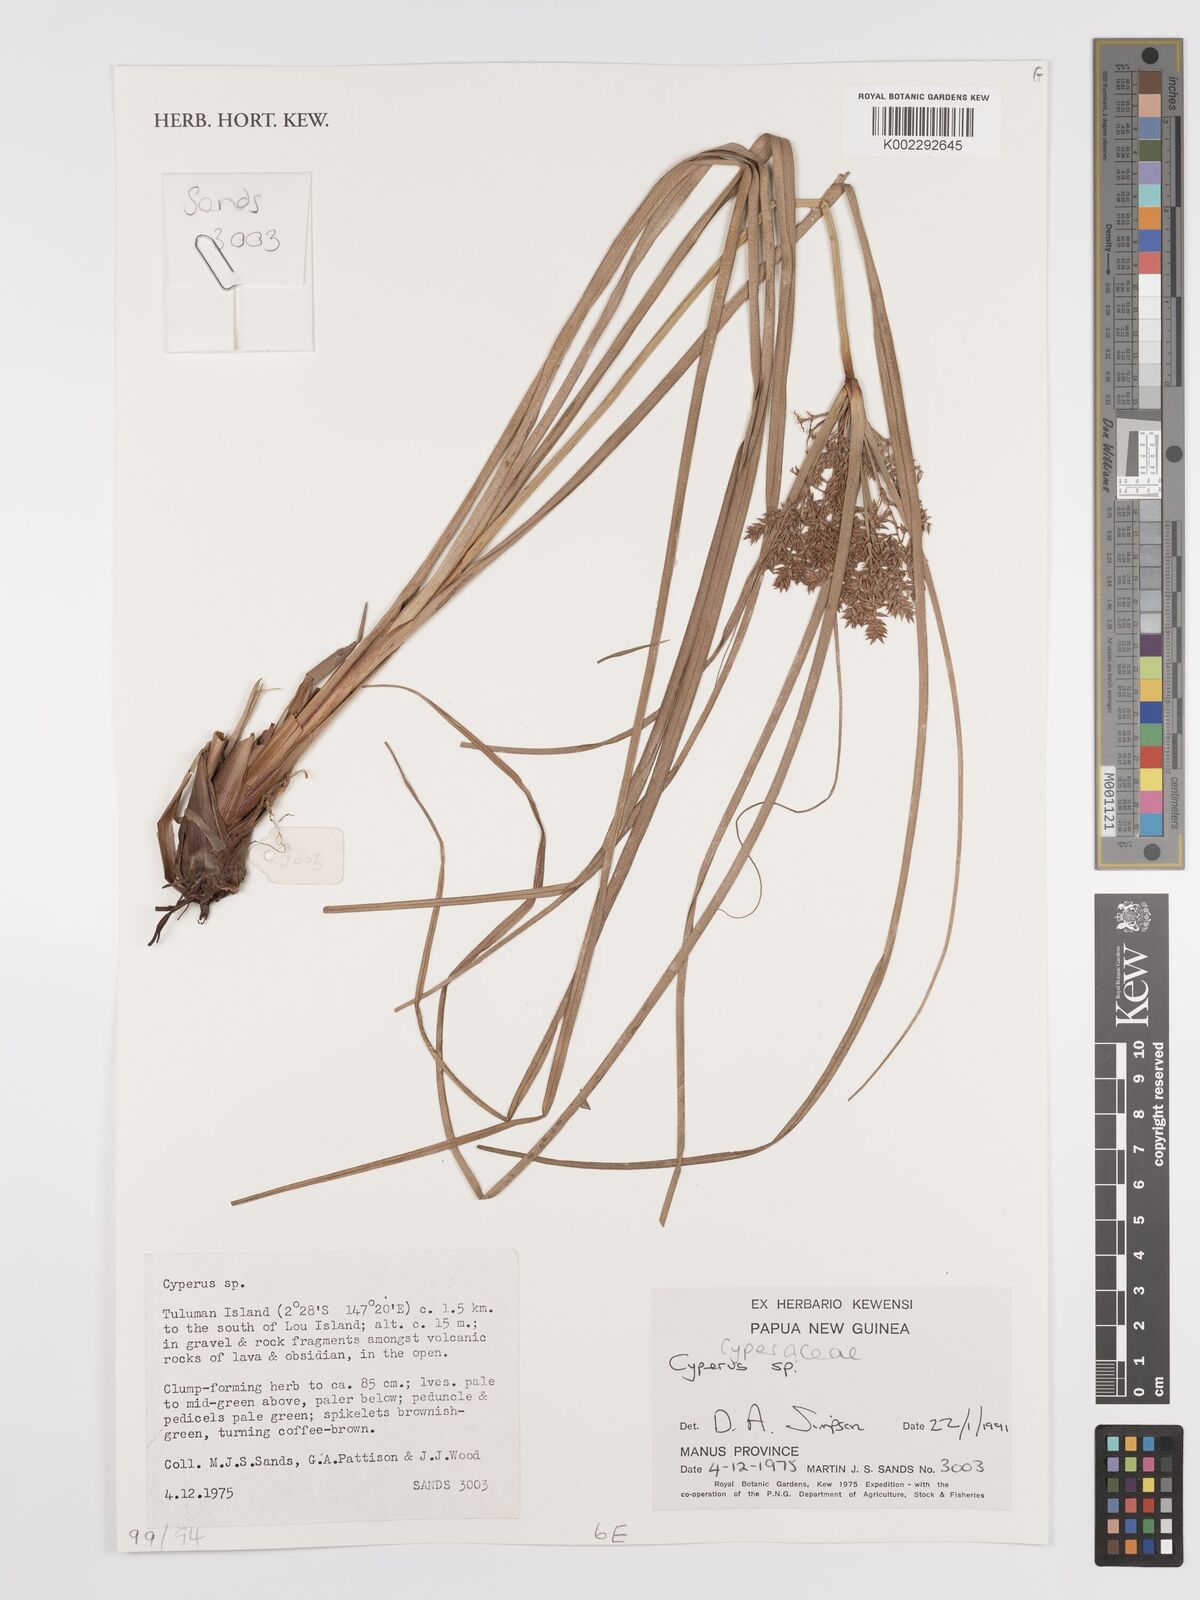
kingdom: Plantae
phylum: Tracheophyta
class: Liliopsida
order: Poales
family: Cyperaceae
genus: Cyperus
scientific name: Cyperus
